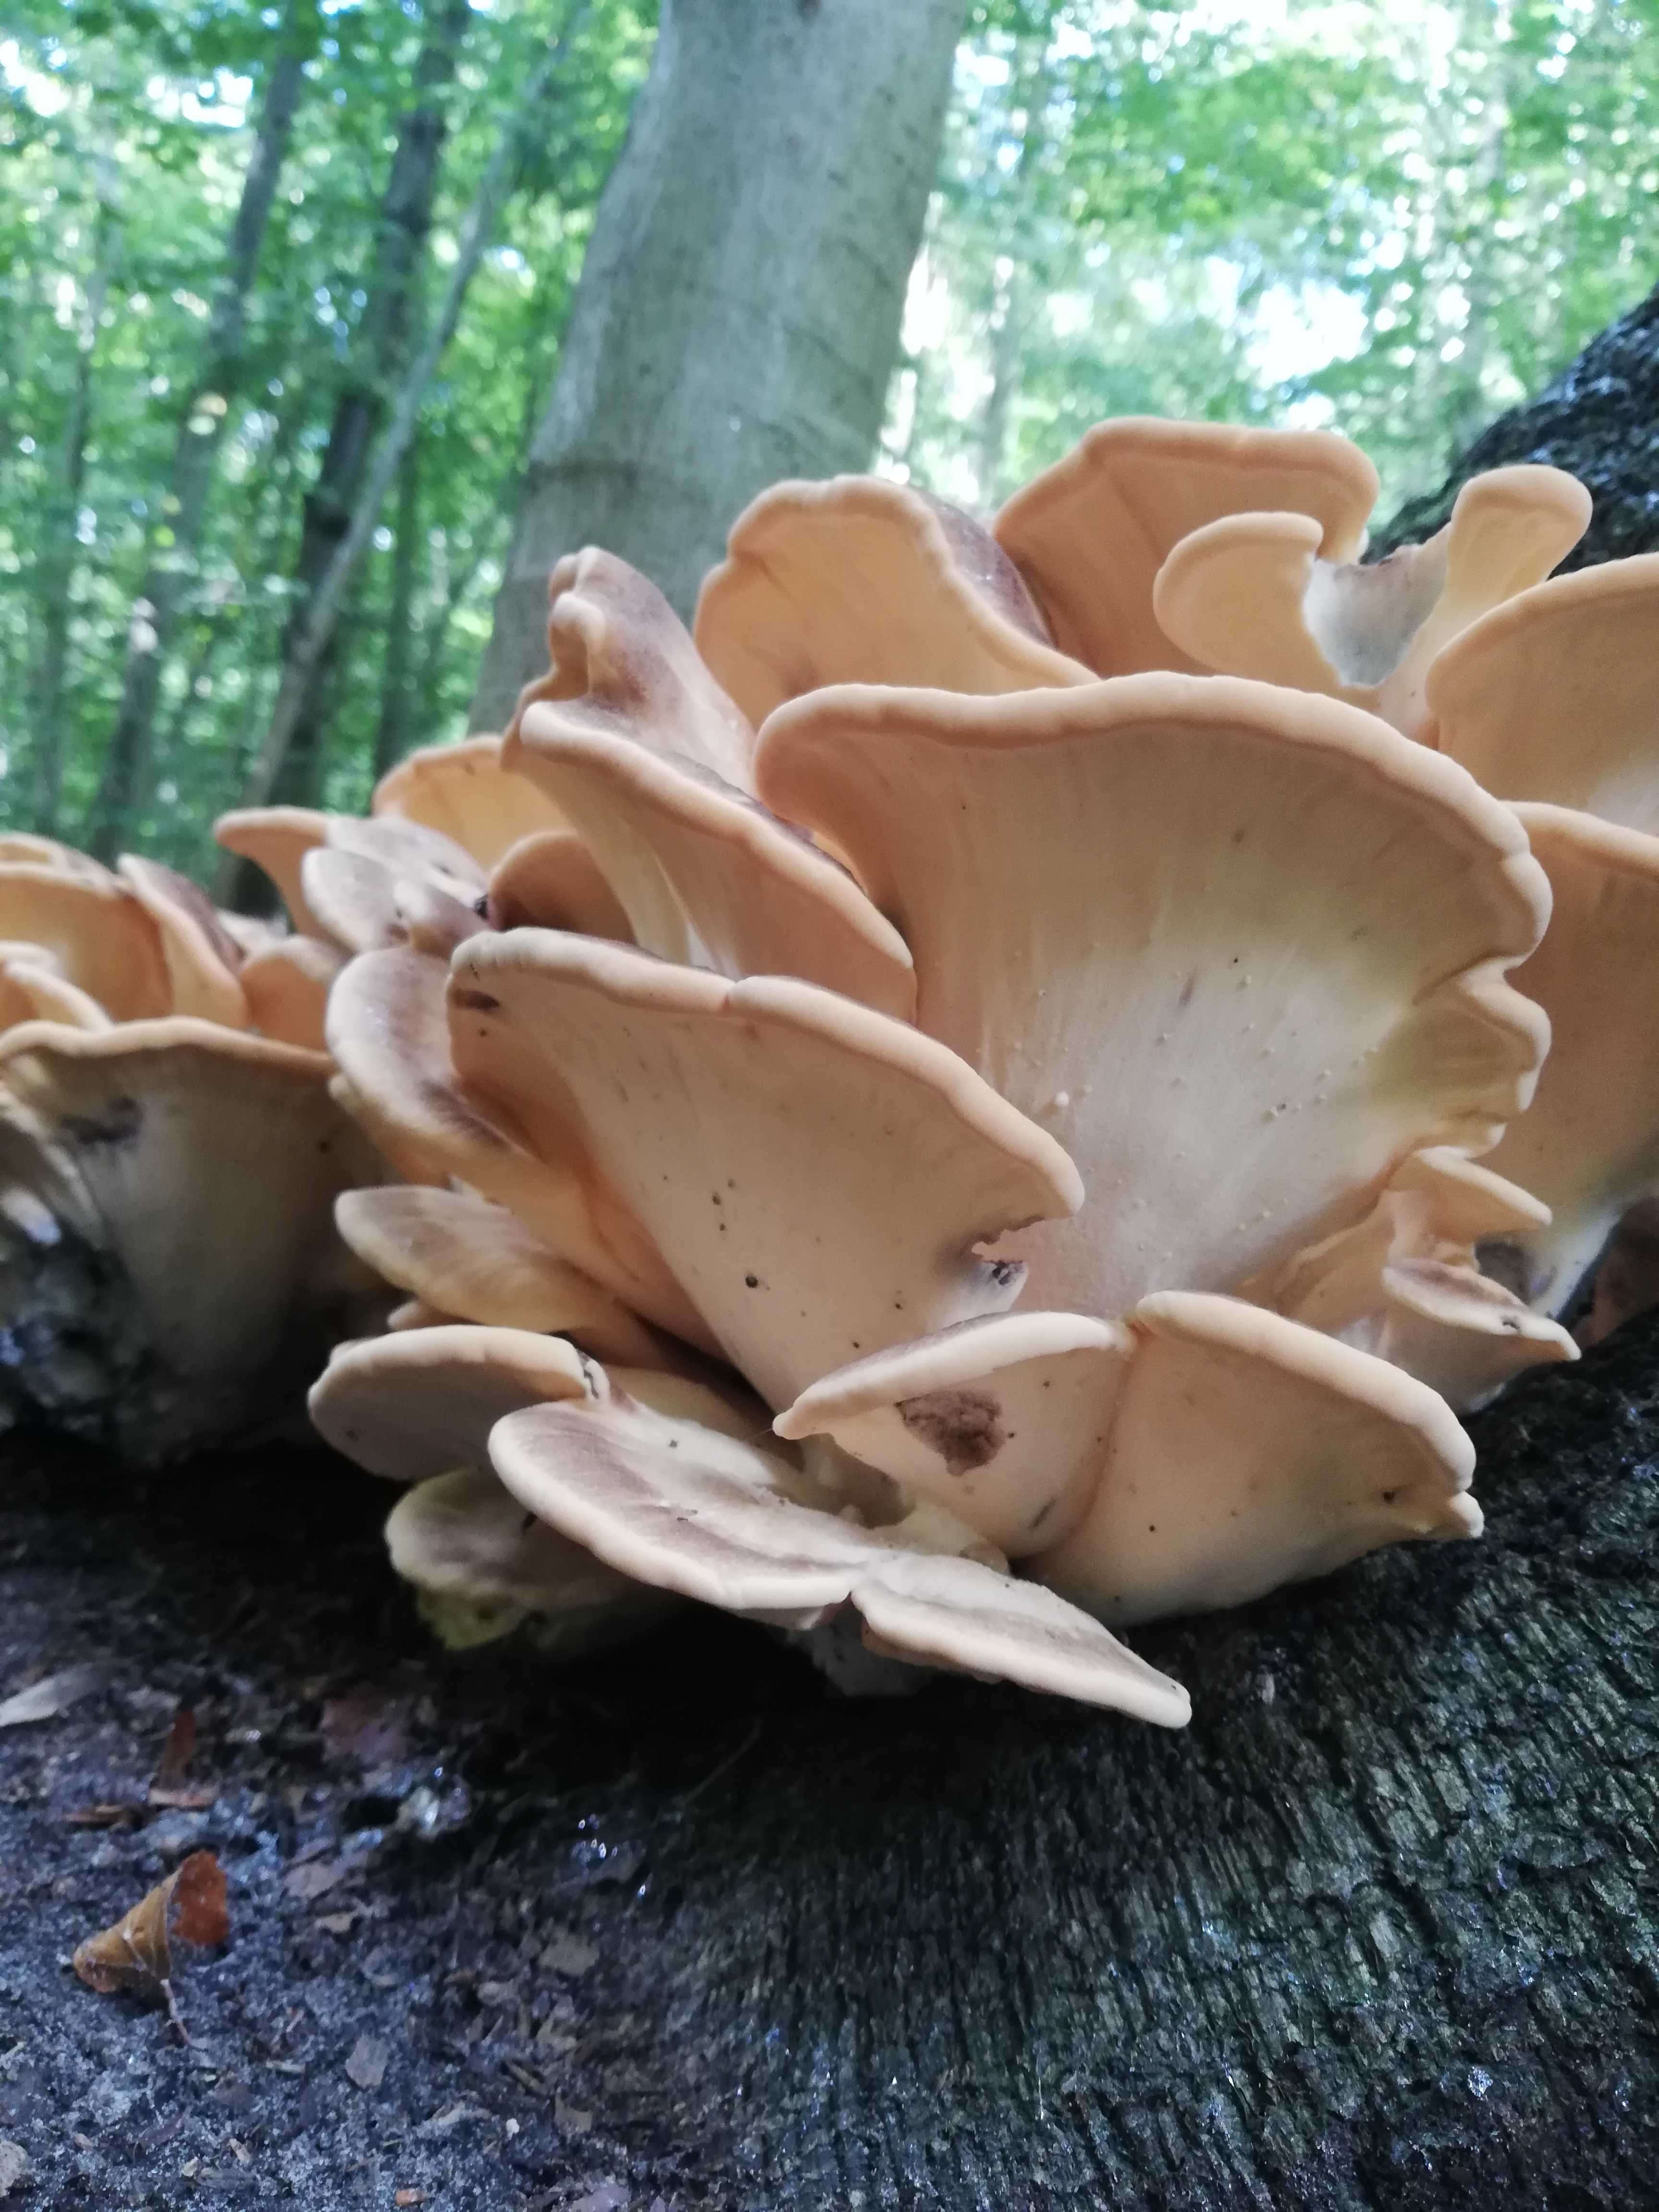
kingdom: Fungi
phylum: Basidiomycota
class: Agaricomycetes
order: Polyporales
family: Meripilaceae
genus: Meripilus
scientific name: Meripilus giganteus
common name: kæmpeporesvamp
